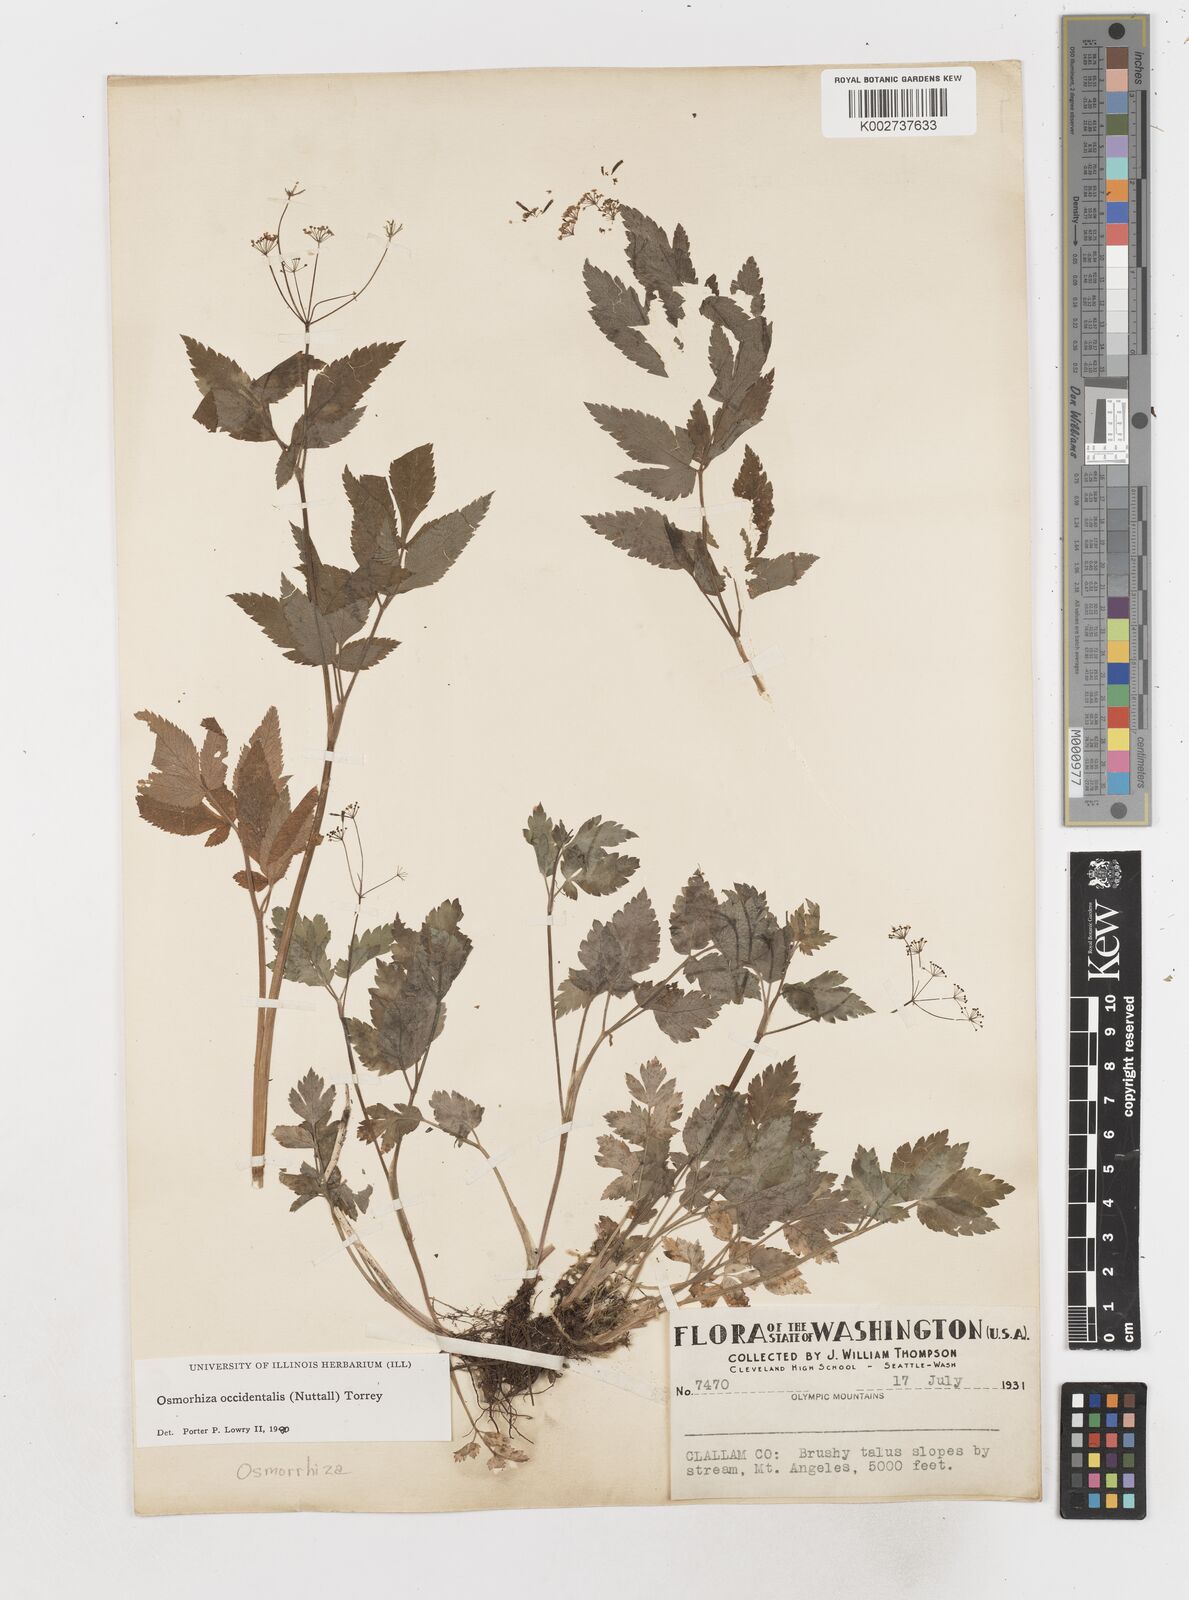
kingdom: Plantae
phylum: Tracheophyta
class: Magnoliopsida
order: Apiales
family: Apiaceae
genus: Osmorhiza
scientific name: Osmorhiza occidentalis
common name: Western sweet cicely
